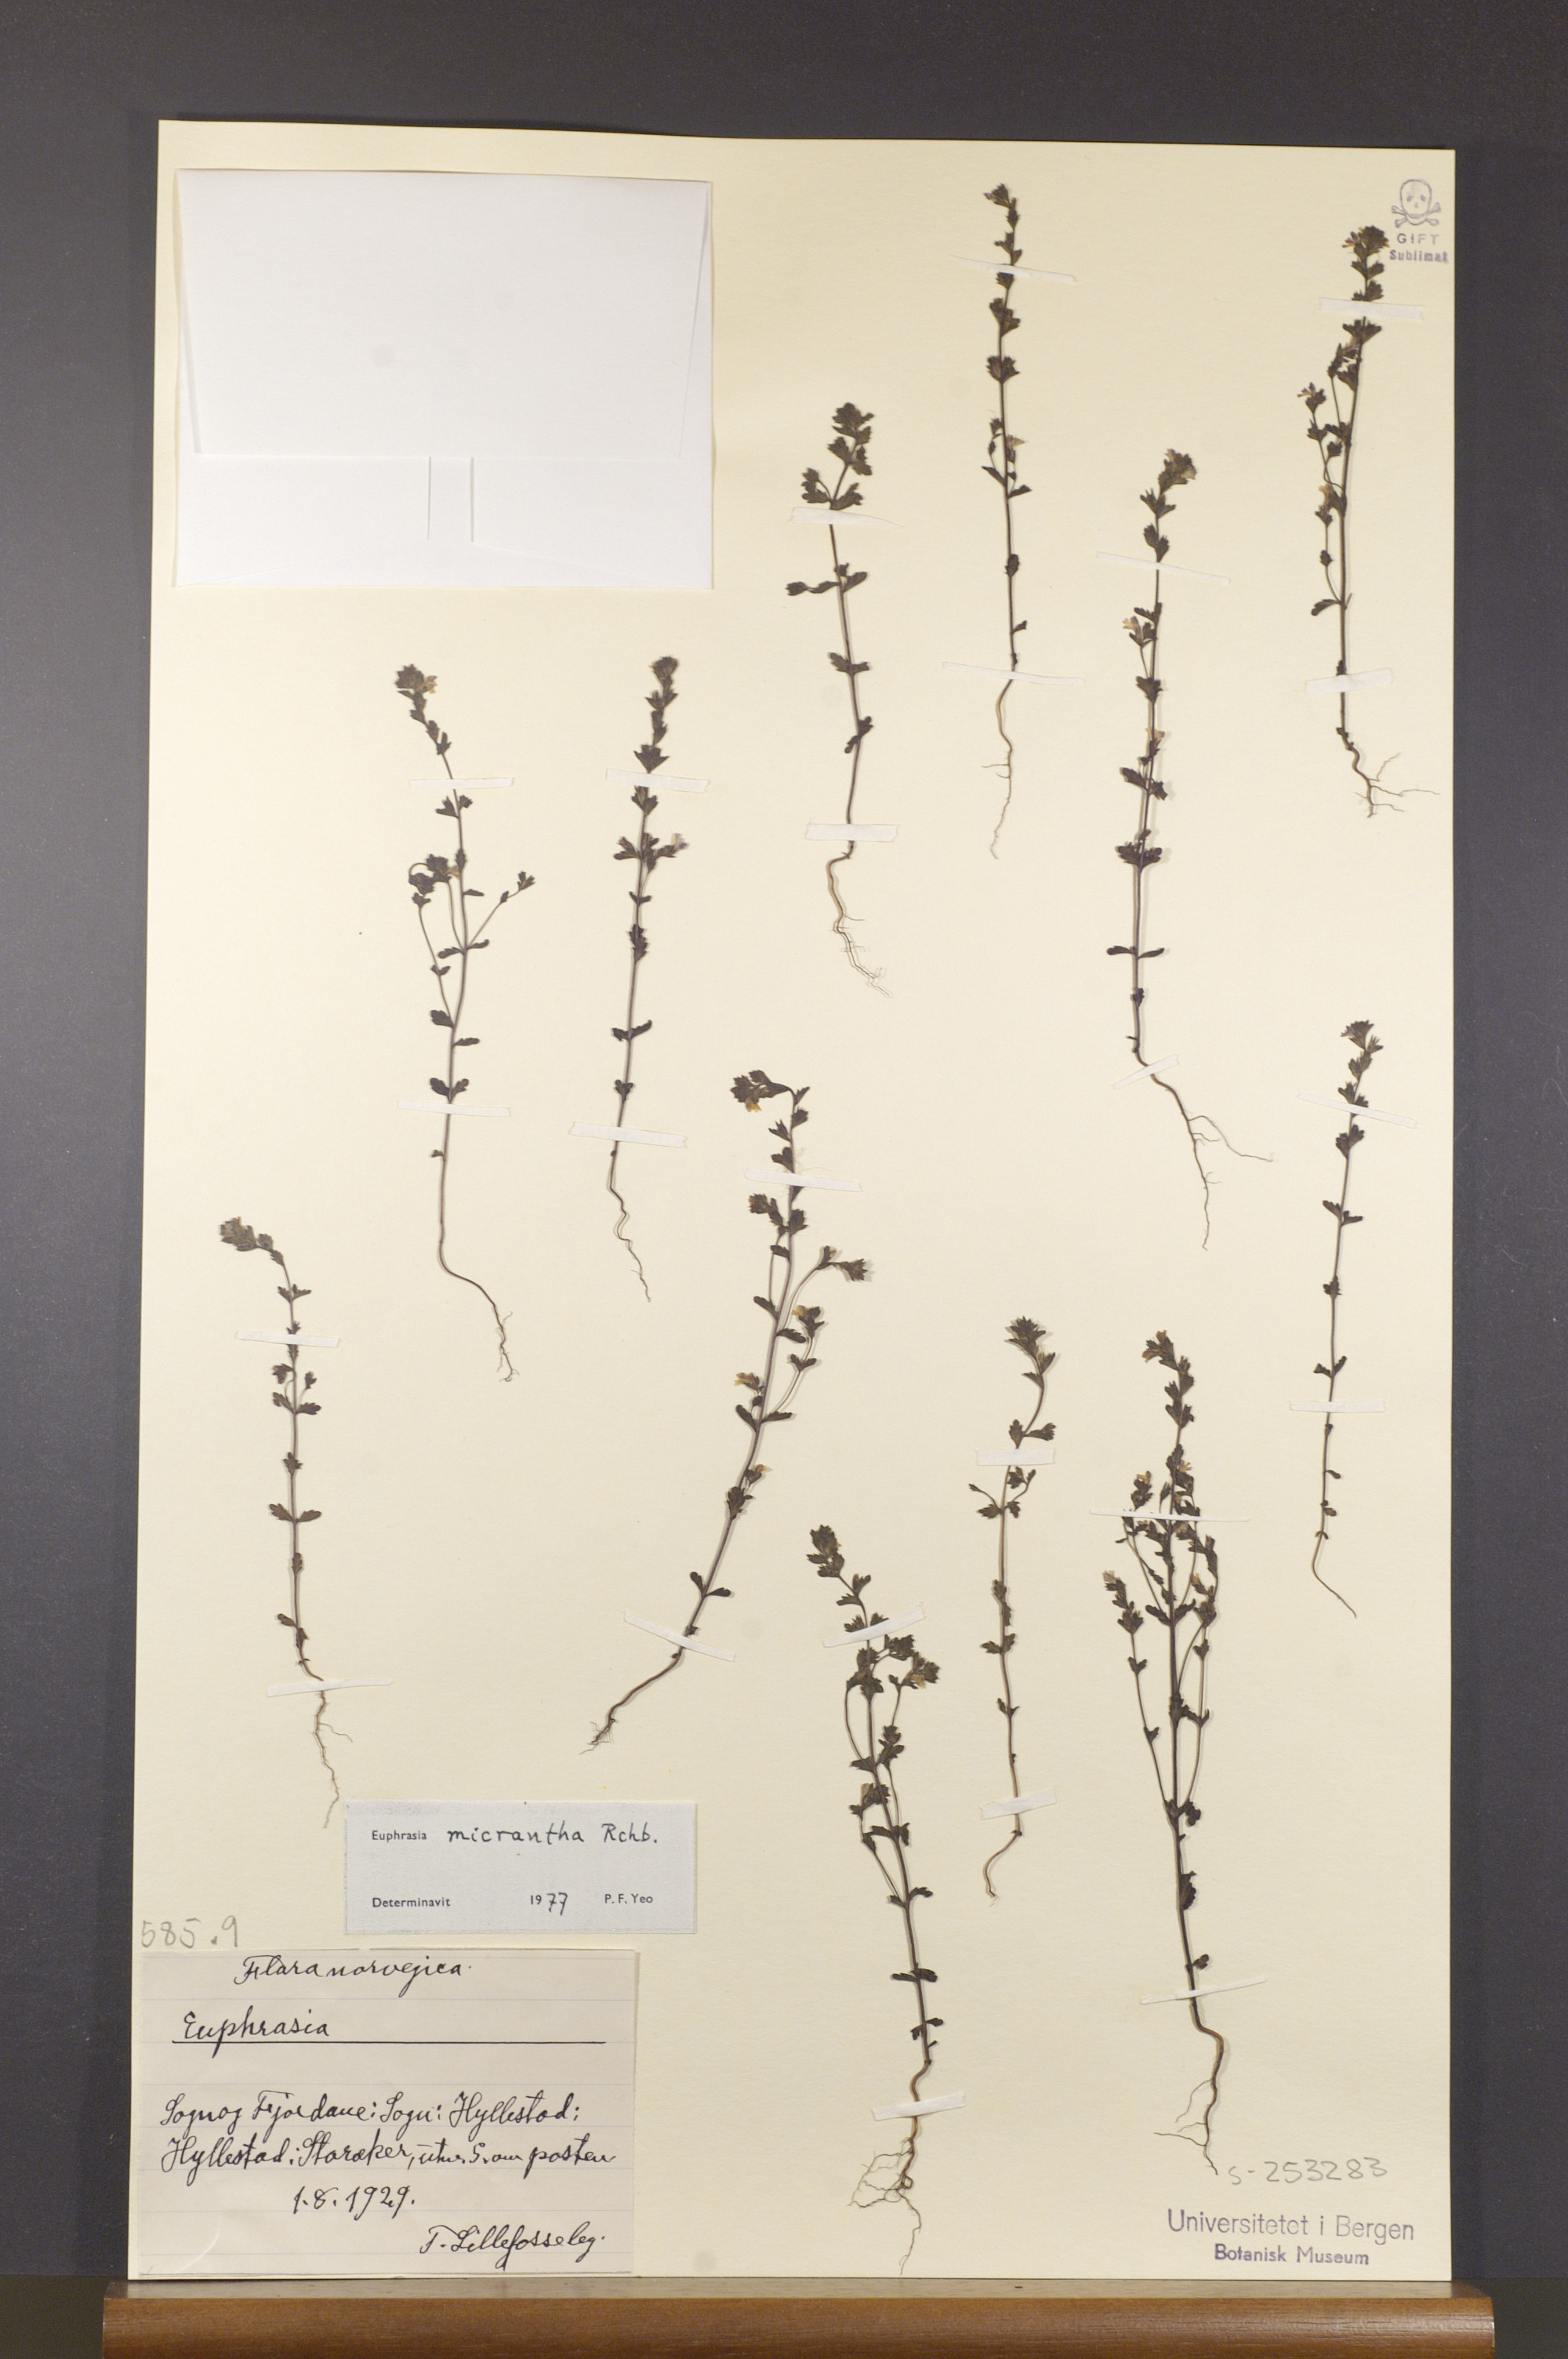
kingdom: Plantae
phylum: Tracheophyta
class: Magnoliopsida
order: Lamiales
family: Orobanchaceae
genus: Euphrasia
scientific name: Euphrasia micrantha
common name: Northern eyebright
